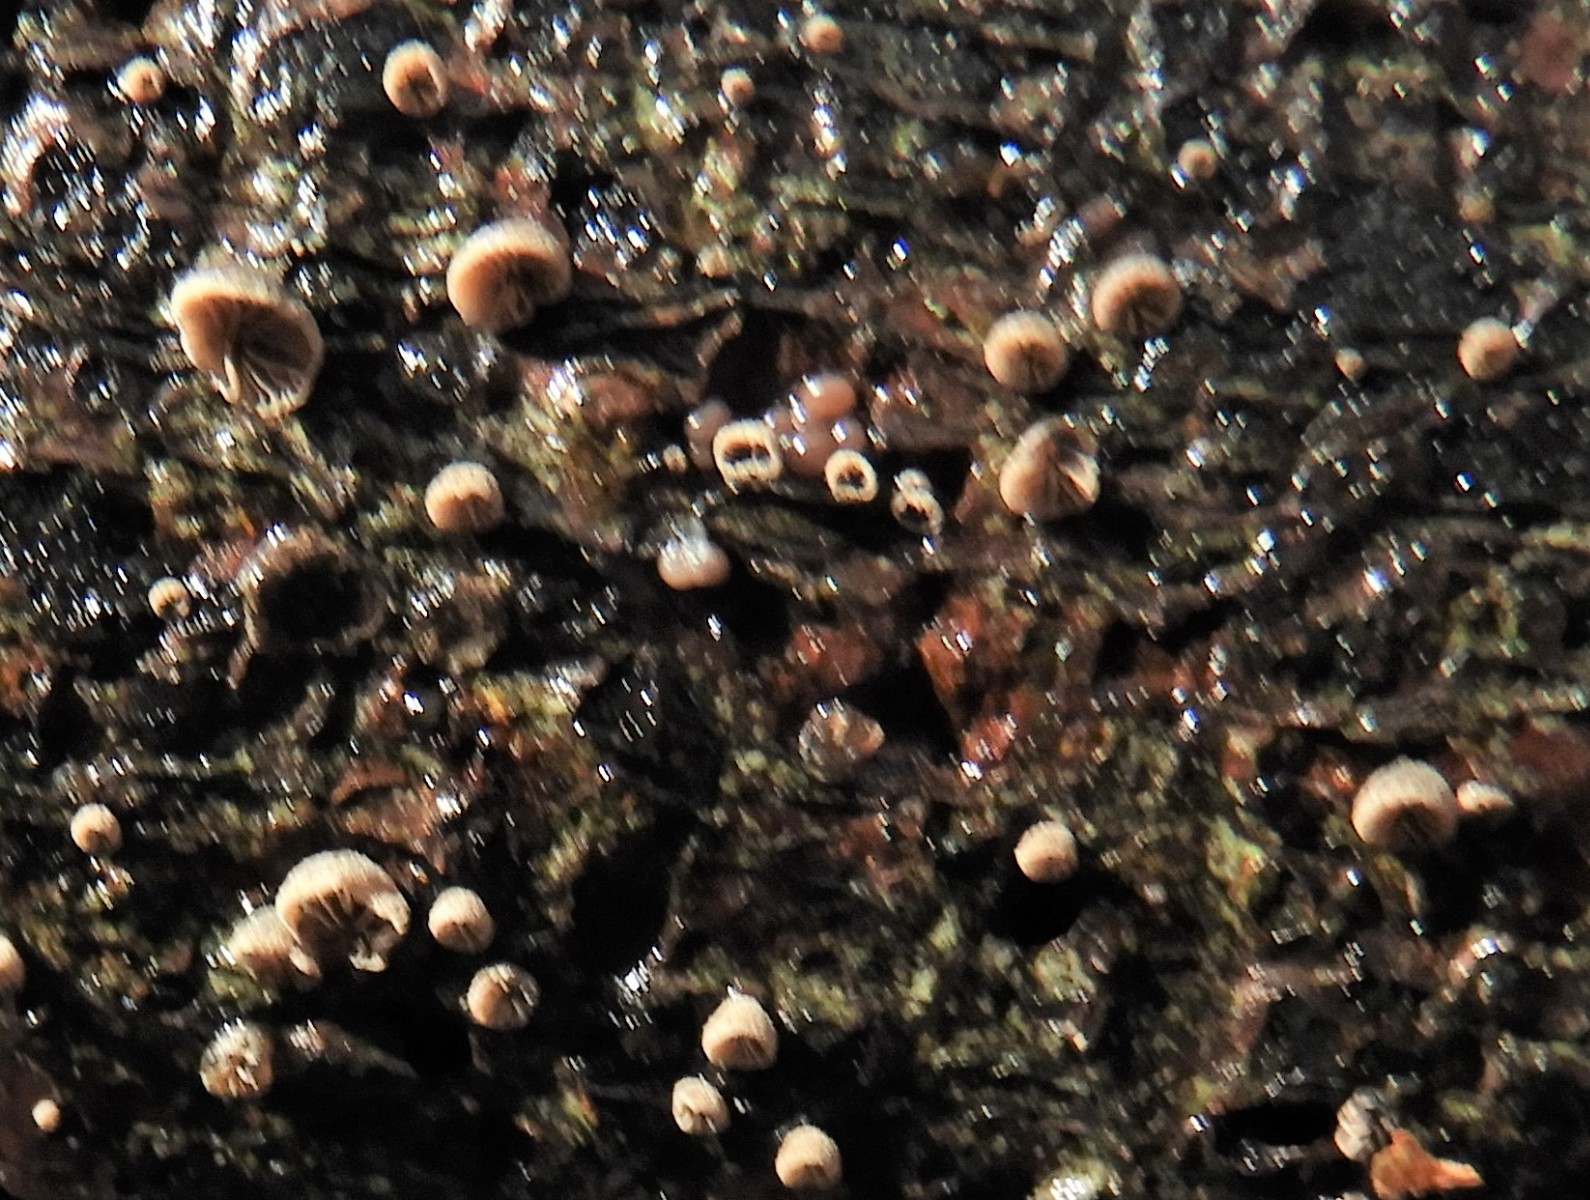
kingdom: Fungi
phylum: Basidiomycota
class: Agaricomycetes
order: Agaricales
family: Pleurotaceae
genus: Resupinatus
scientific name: Resupinatus trichotis
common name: mørkfiltet barkhat
